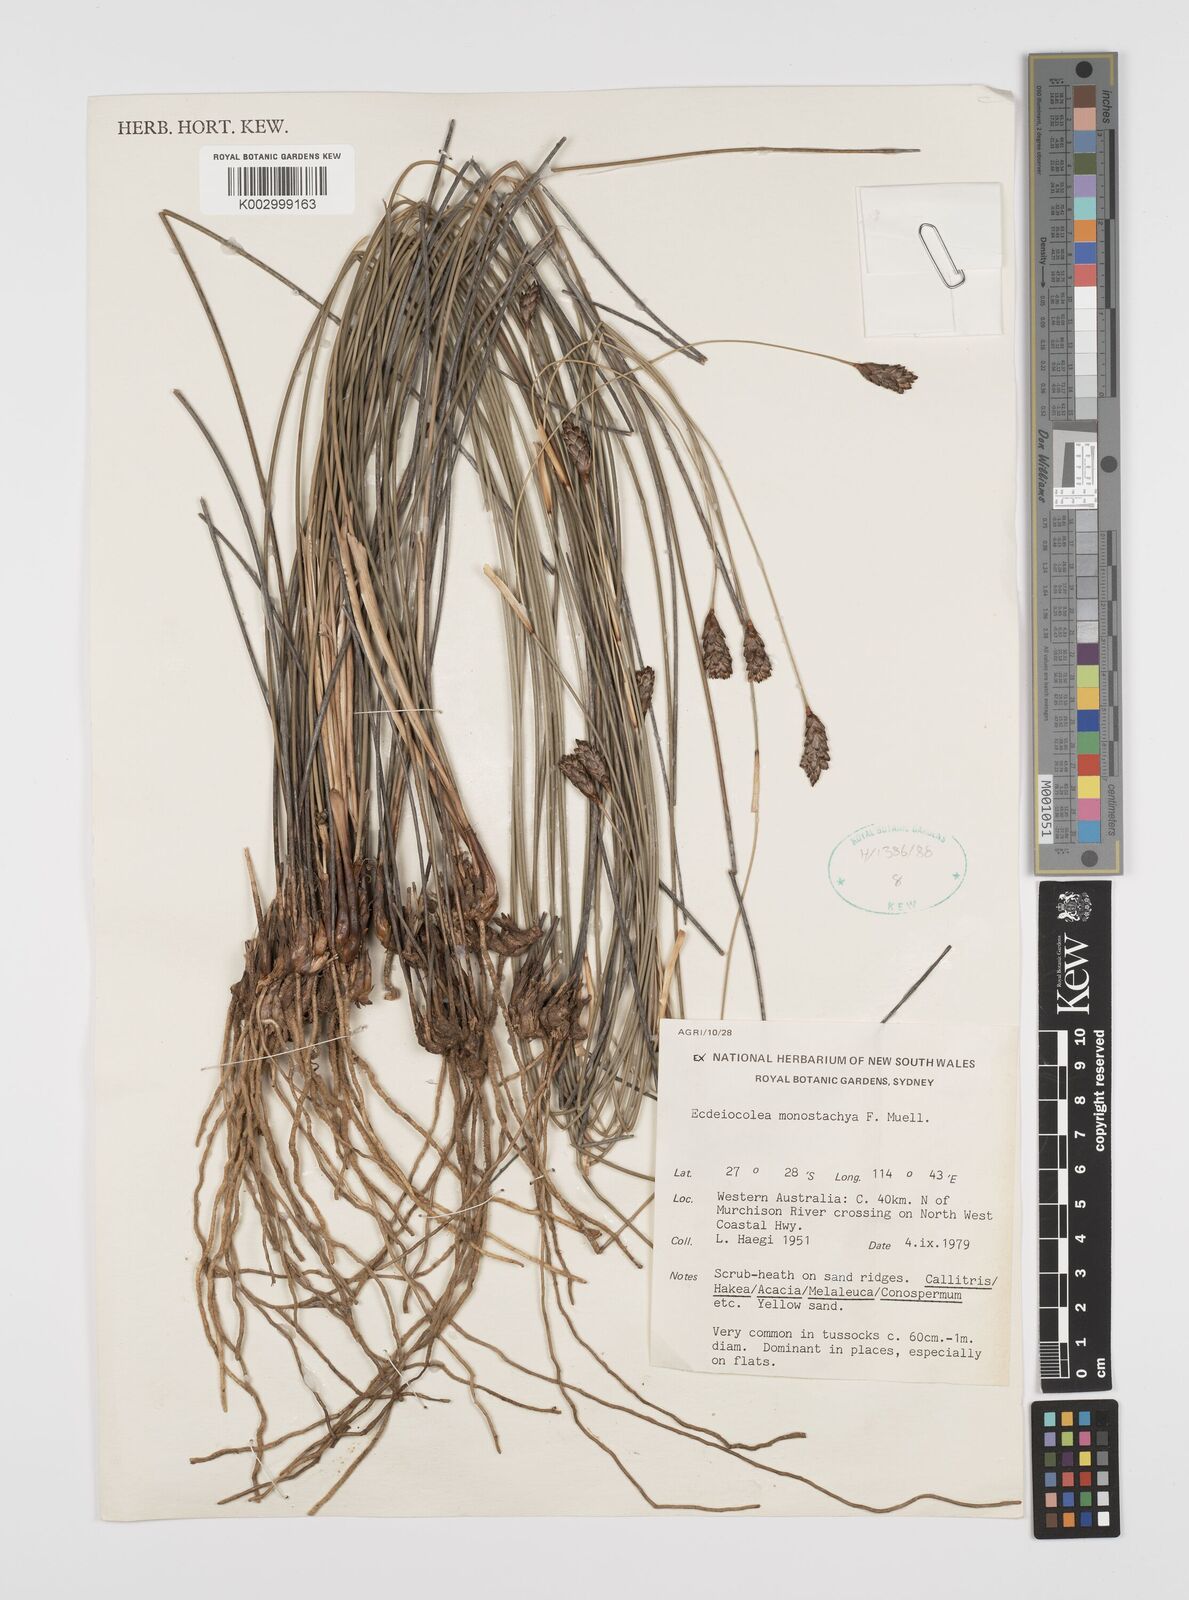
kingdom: Plantae
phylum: Tracheophyta
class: Liliopsida
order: Poales
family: Ecdeiocoleaceae
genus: Ecdeiocolea
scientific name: Ecdeiocolea monostachya
